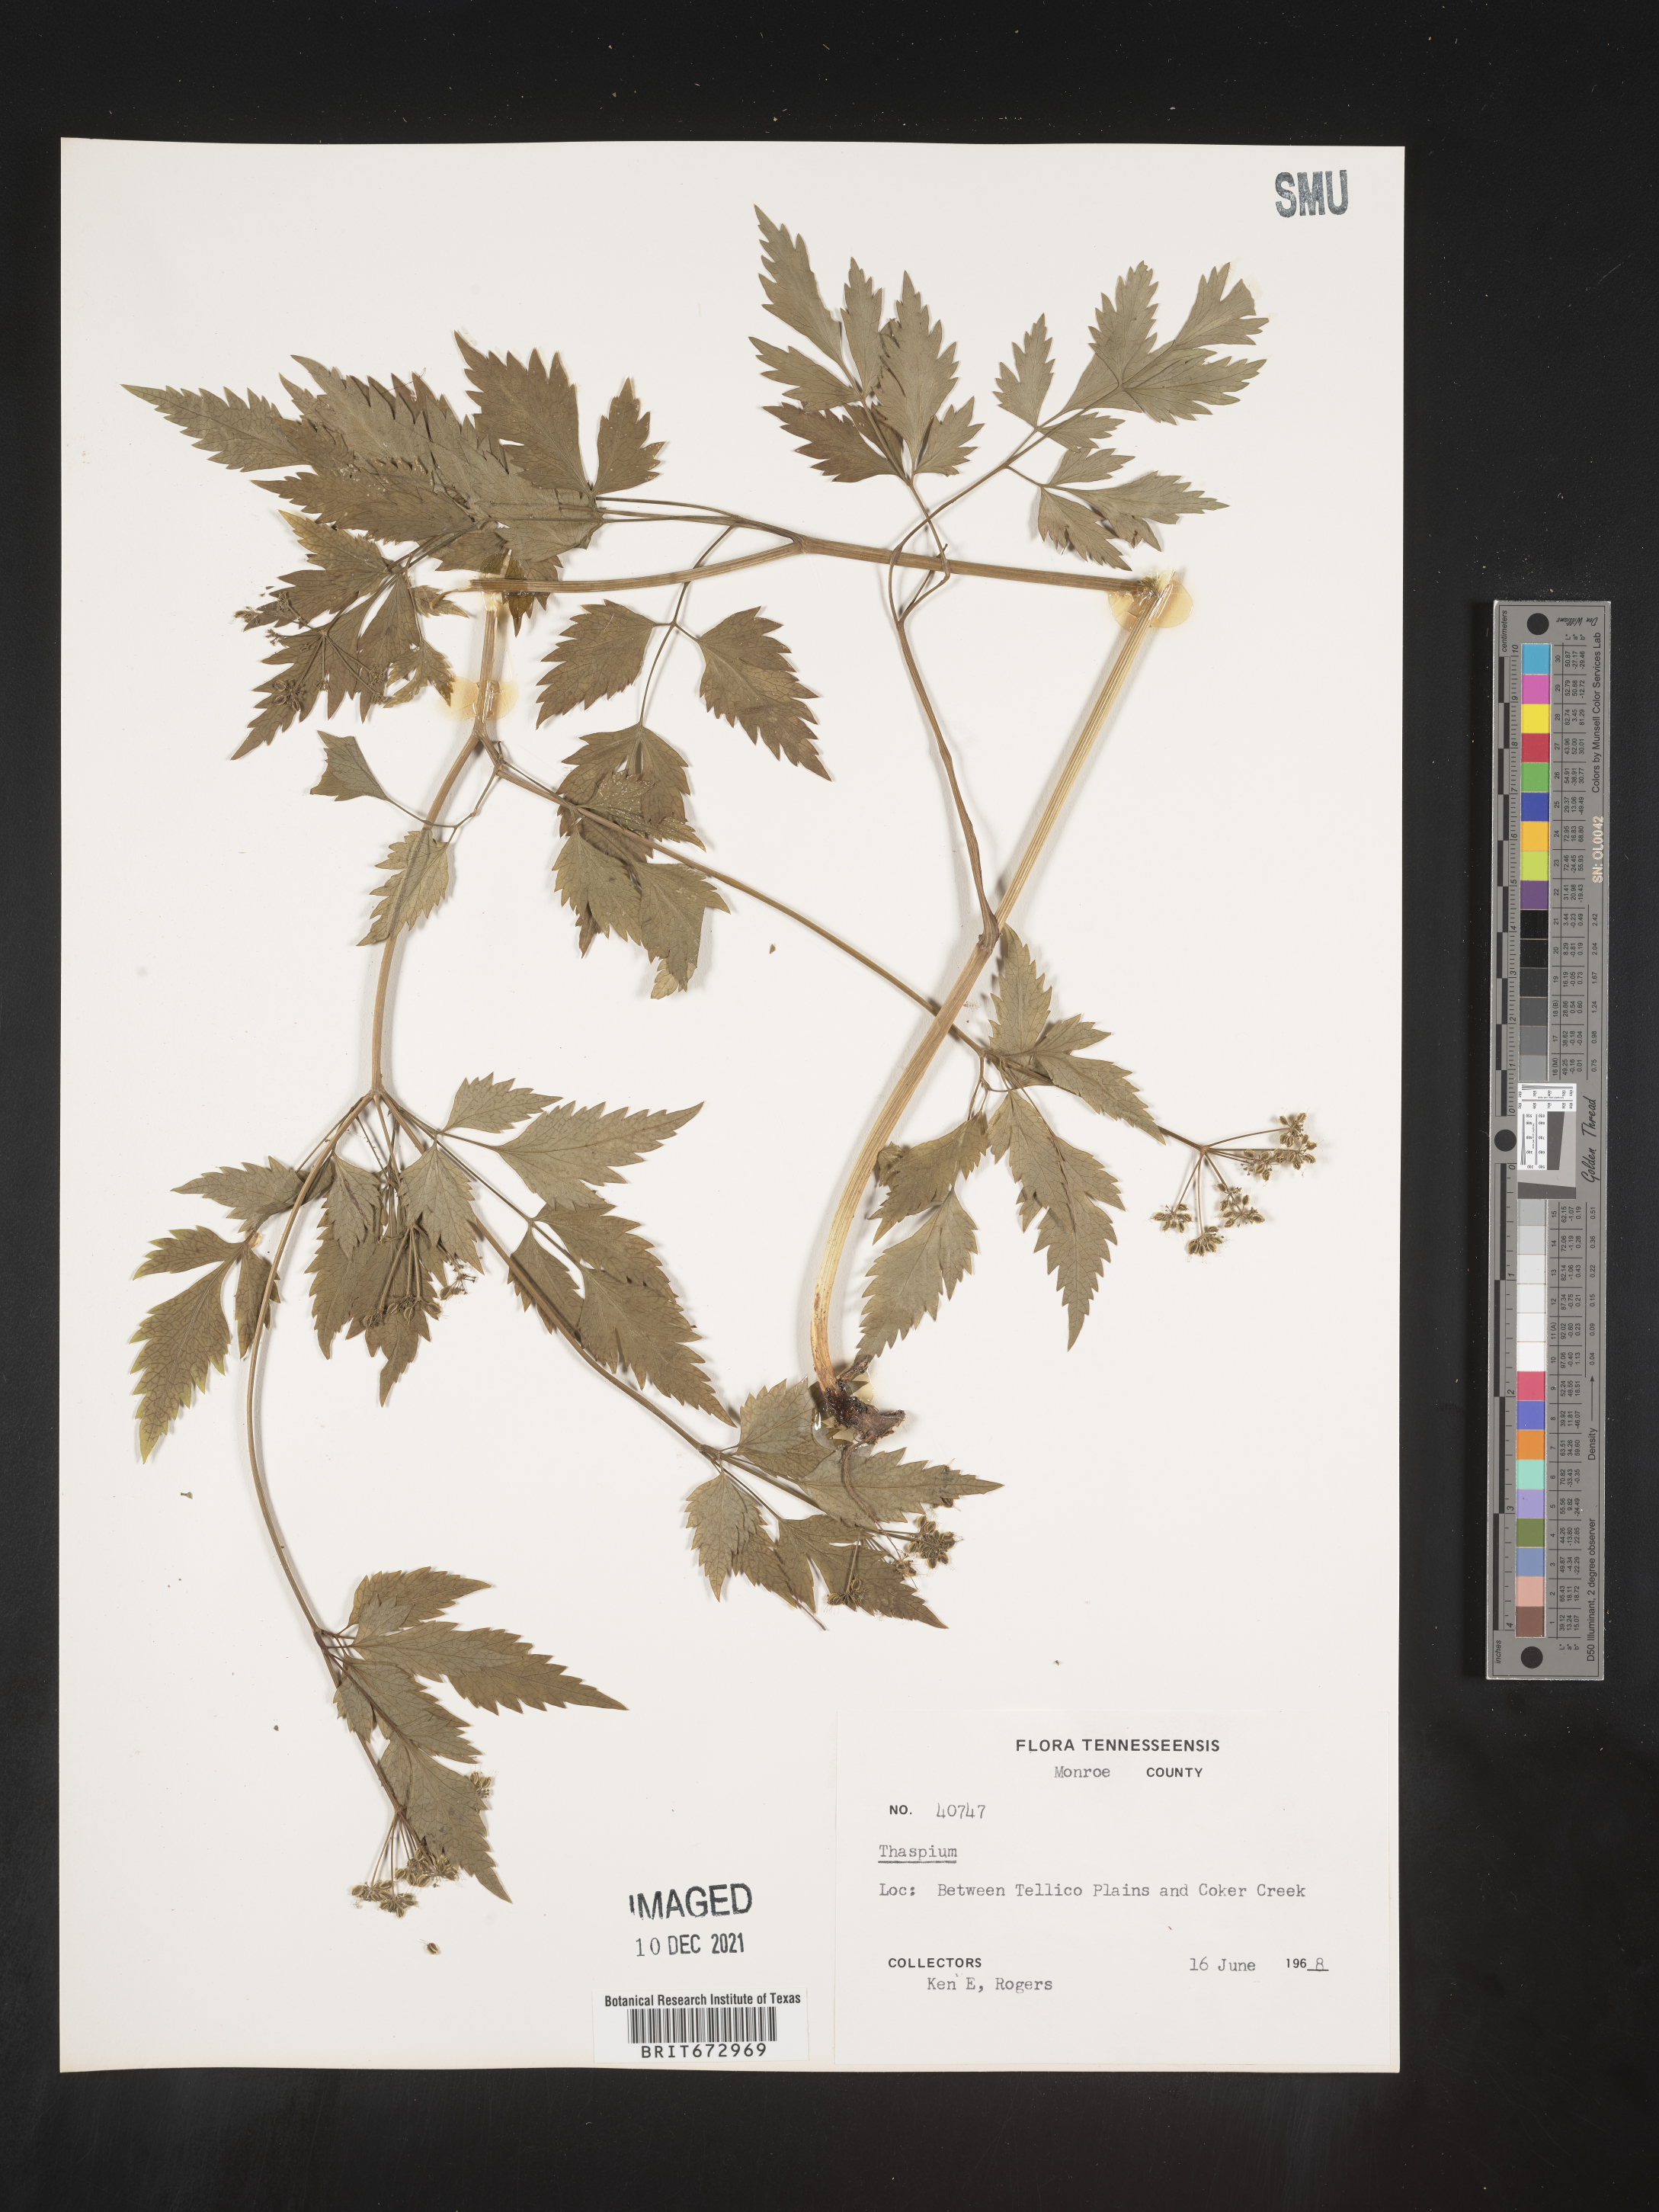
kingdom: Plantae
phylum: Tracheophyta
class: Magnoliopsida
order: Apiales
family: Apiaceae
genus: Thaspium
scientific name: Thaspium
